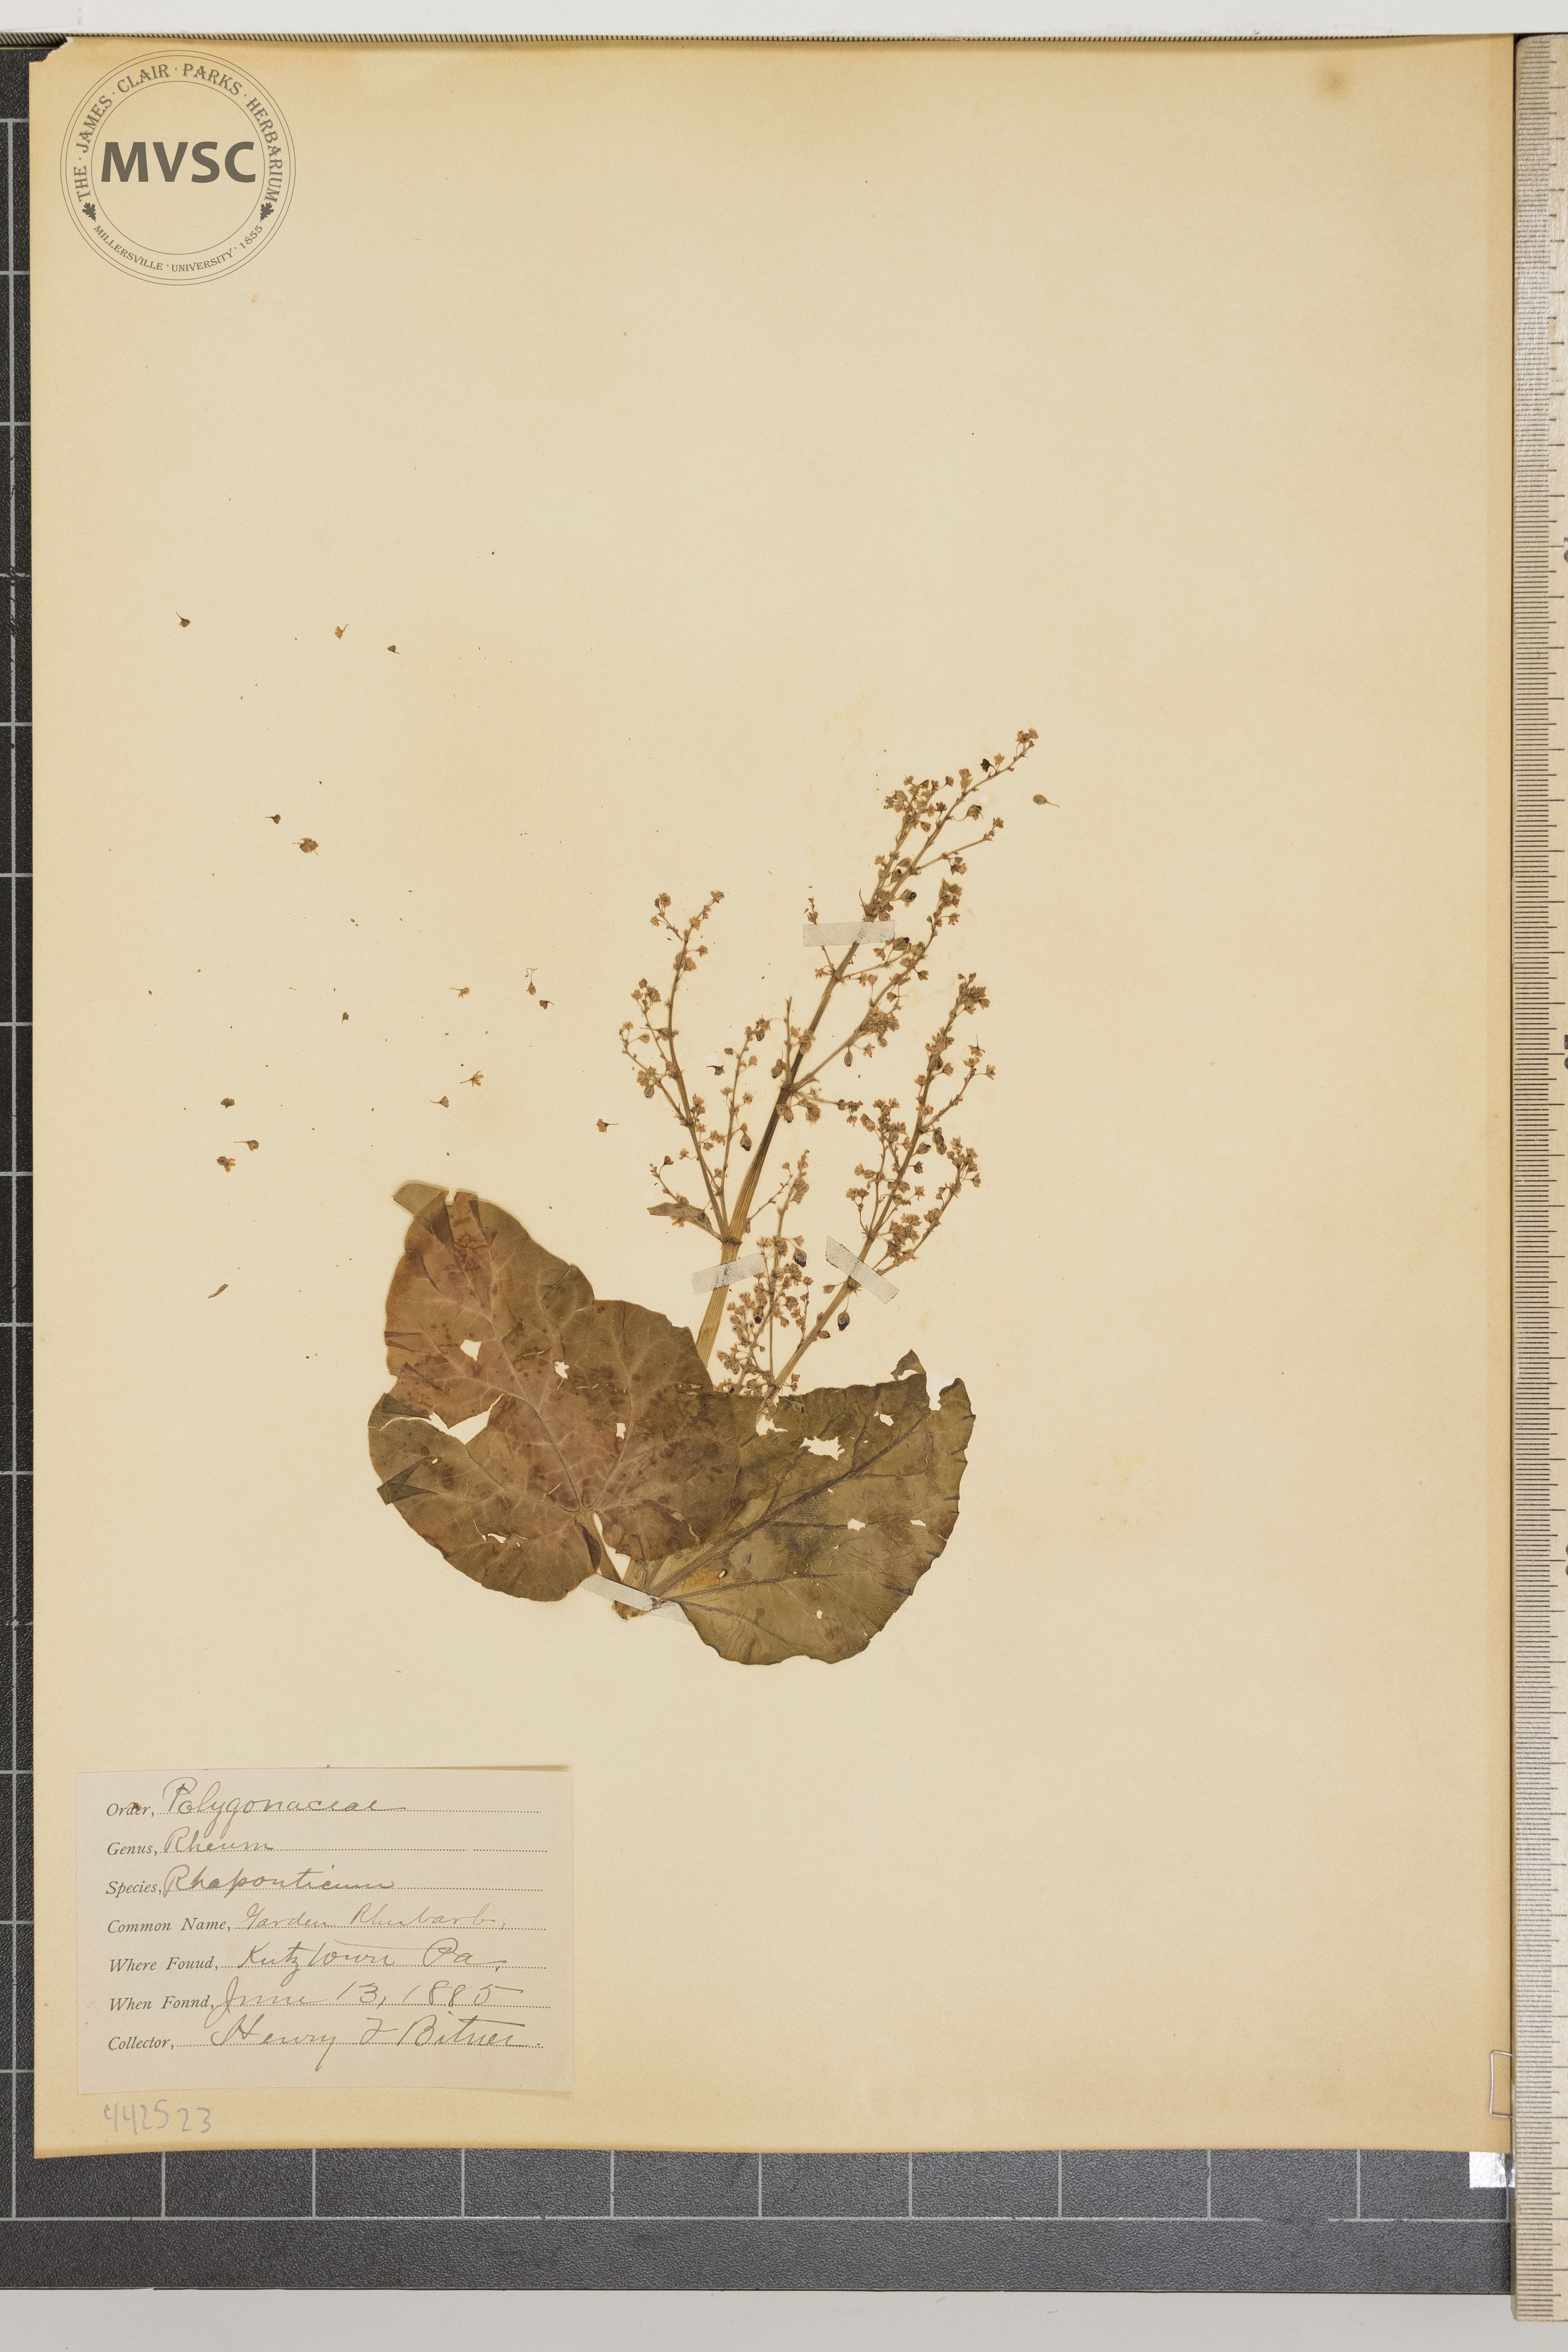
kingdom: Plantae
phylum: Tracheophyta
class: Magnoliopsida
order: Caryophyllales
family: Polygonaceae
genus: Rheum
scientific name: Rheum rhabarbarum
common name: Garden rhubarb
